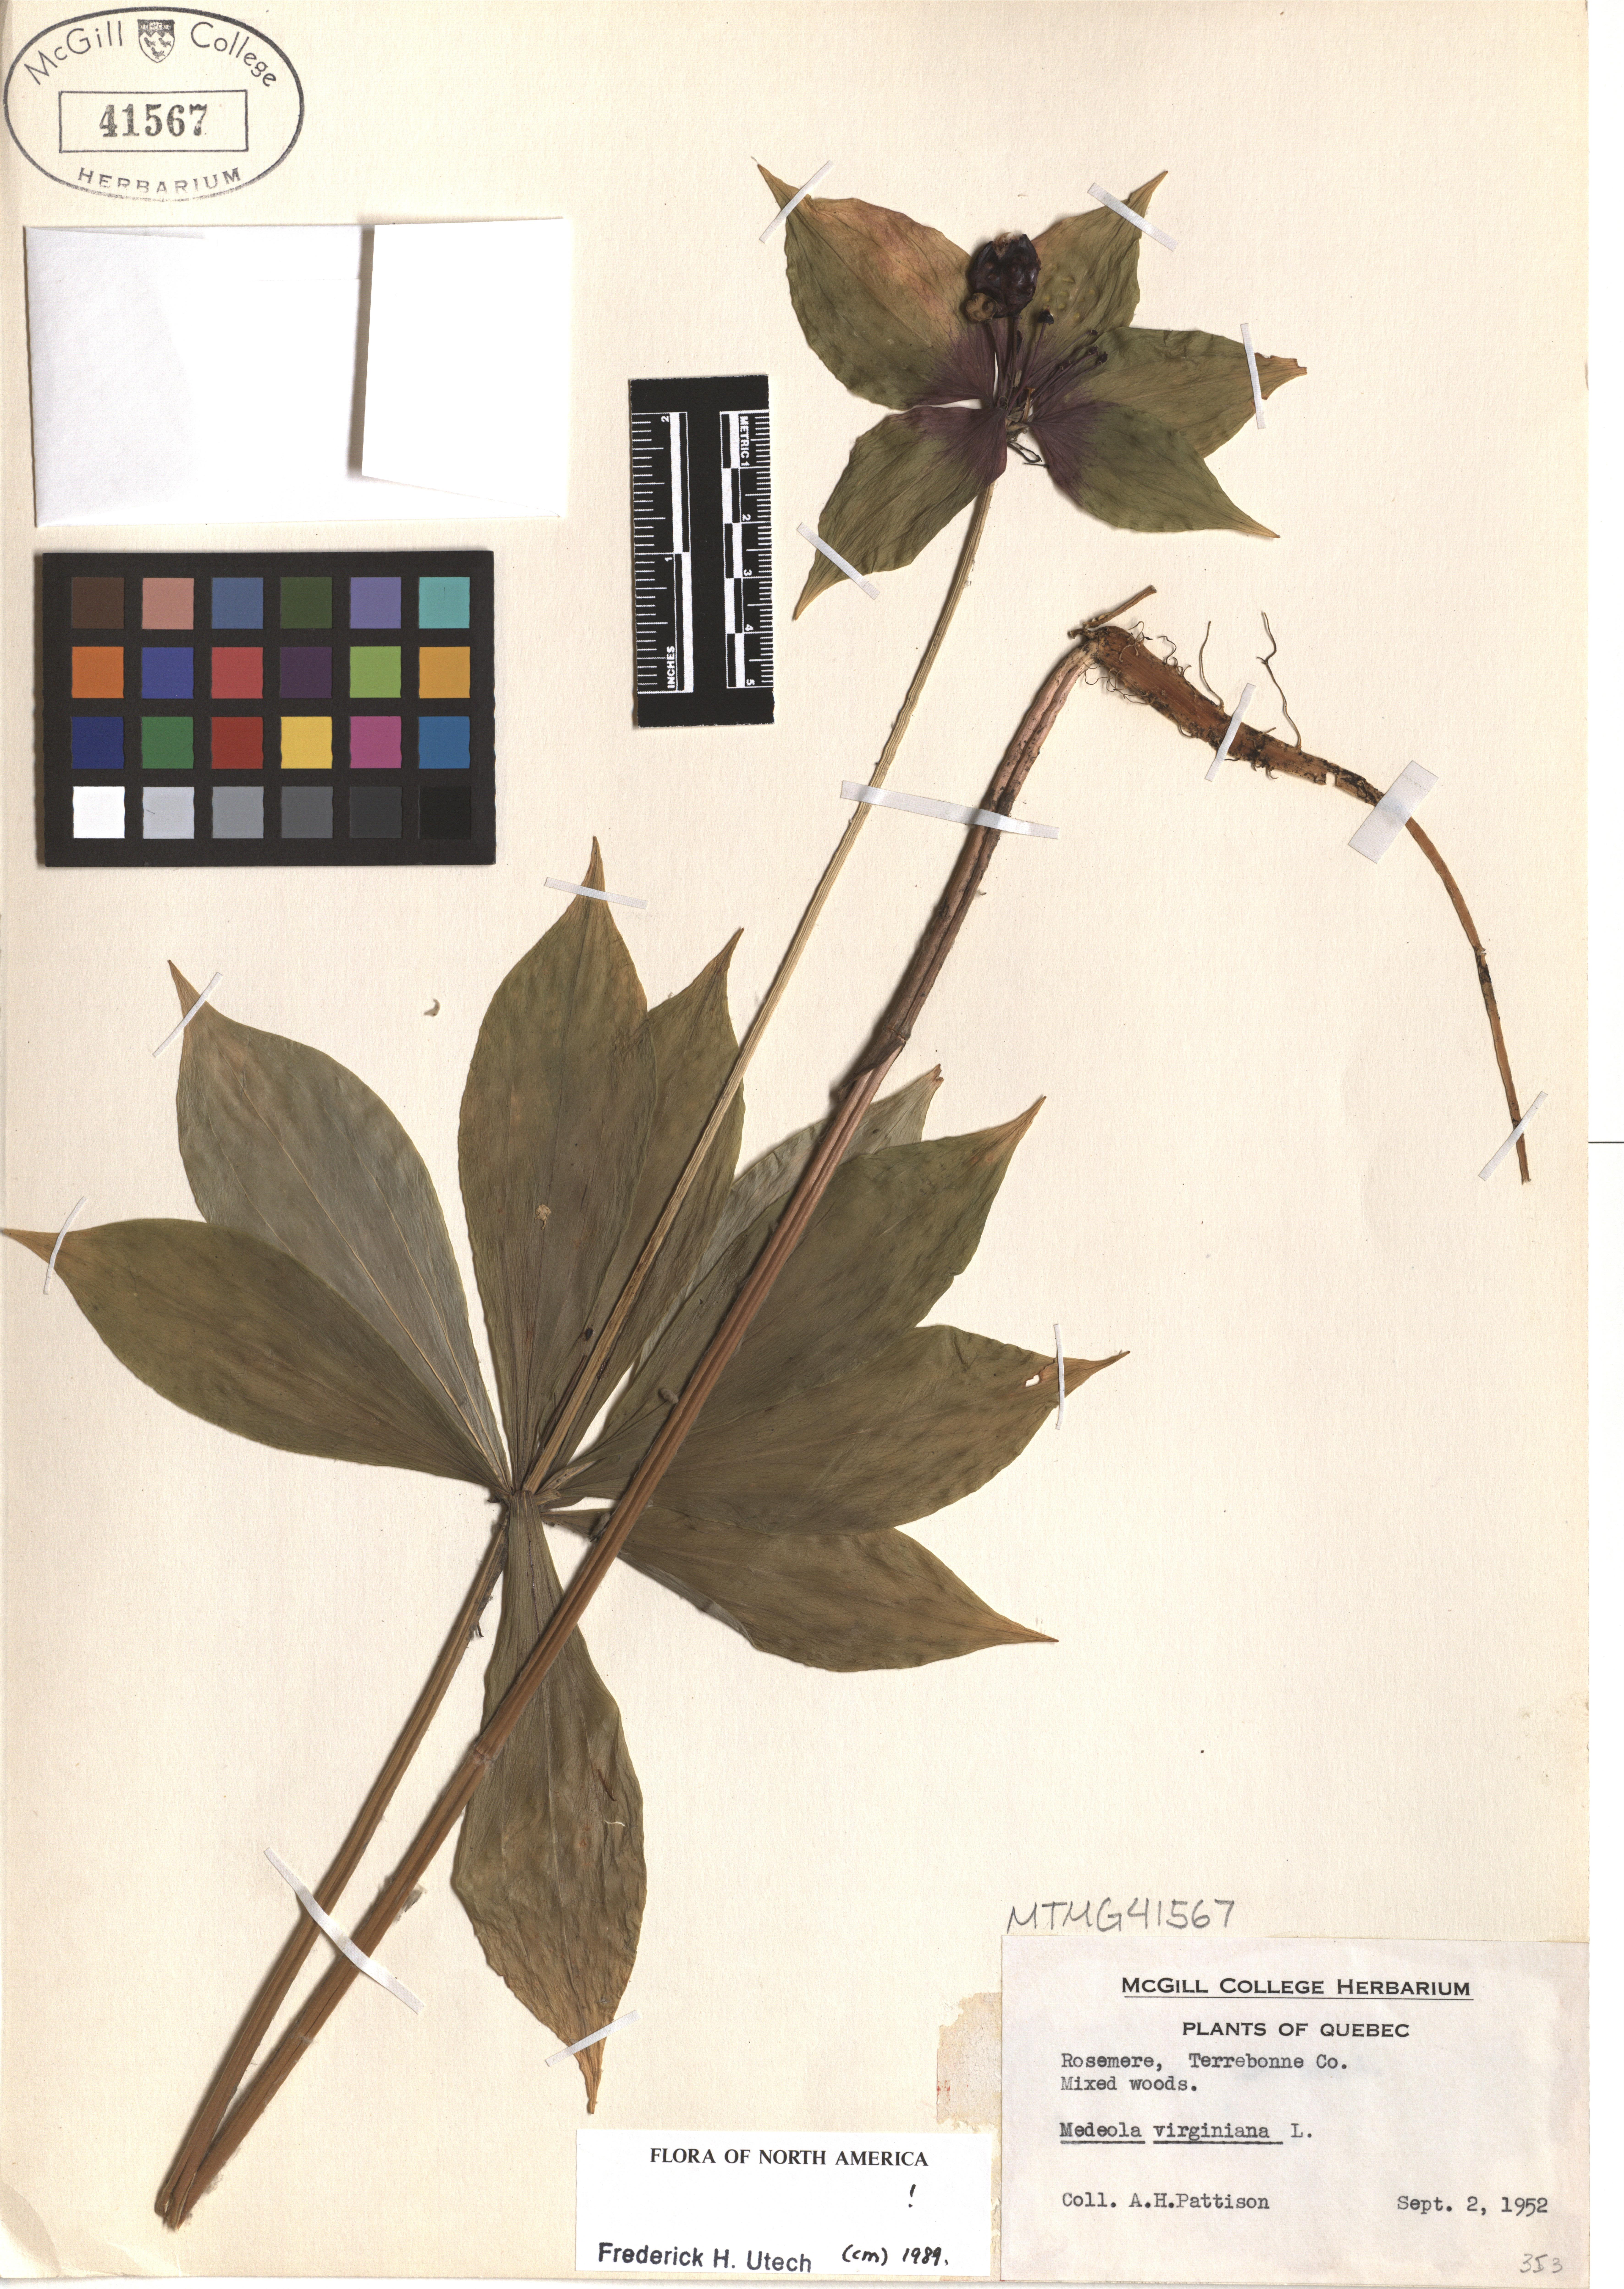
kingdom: Plantae
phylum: Tracheophyta
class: Liliopsida
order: Liliales
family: Liliaceae
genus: Medeola
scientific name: Medeola virginiana
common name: Indian cucumber-root
